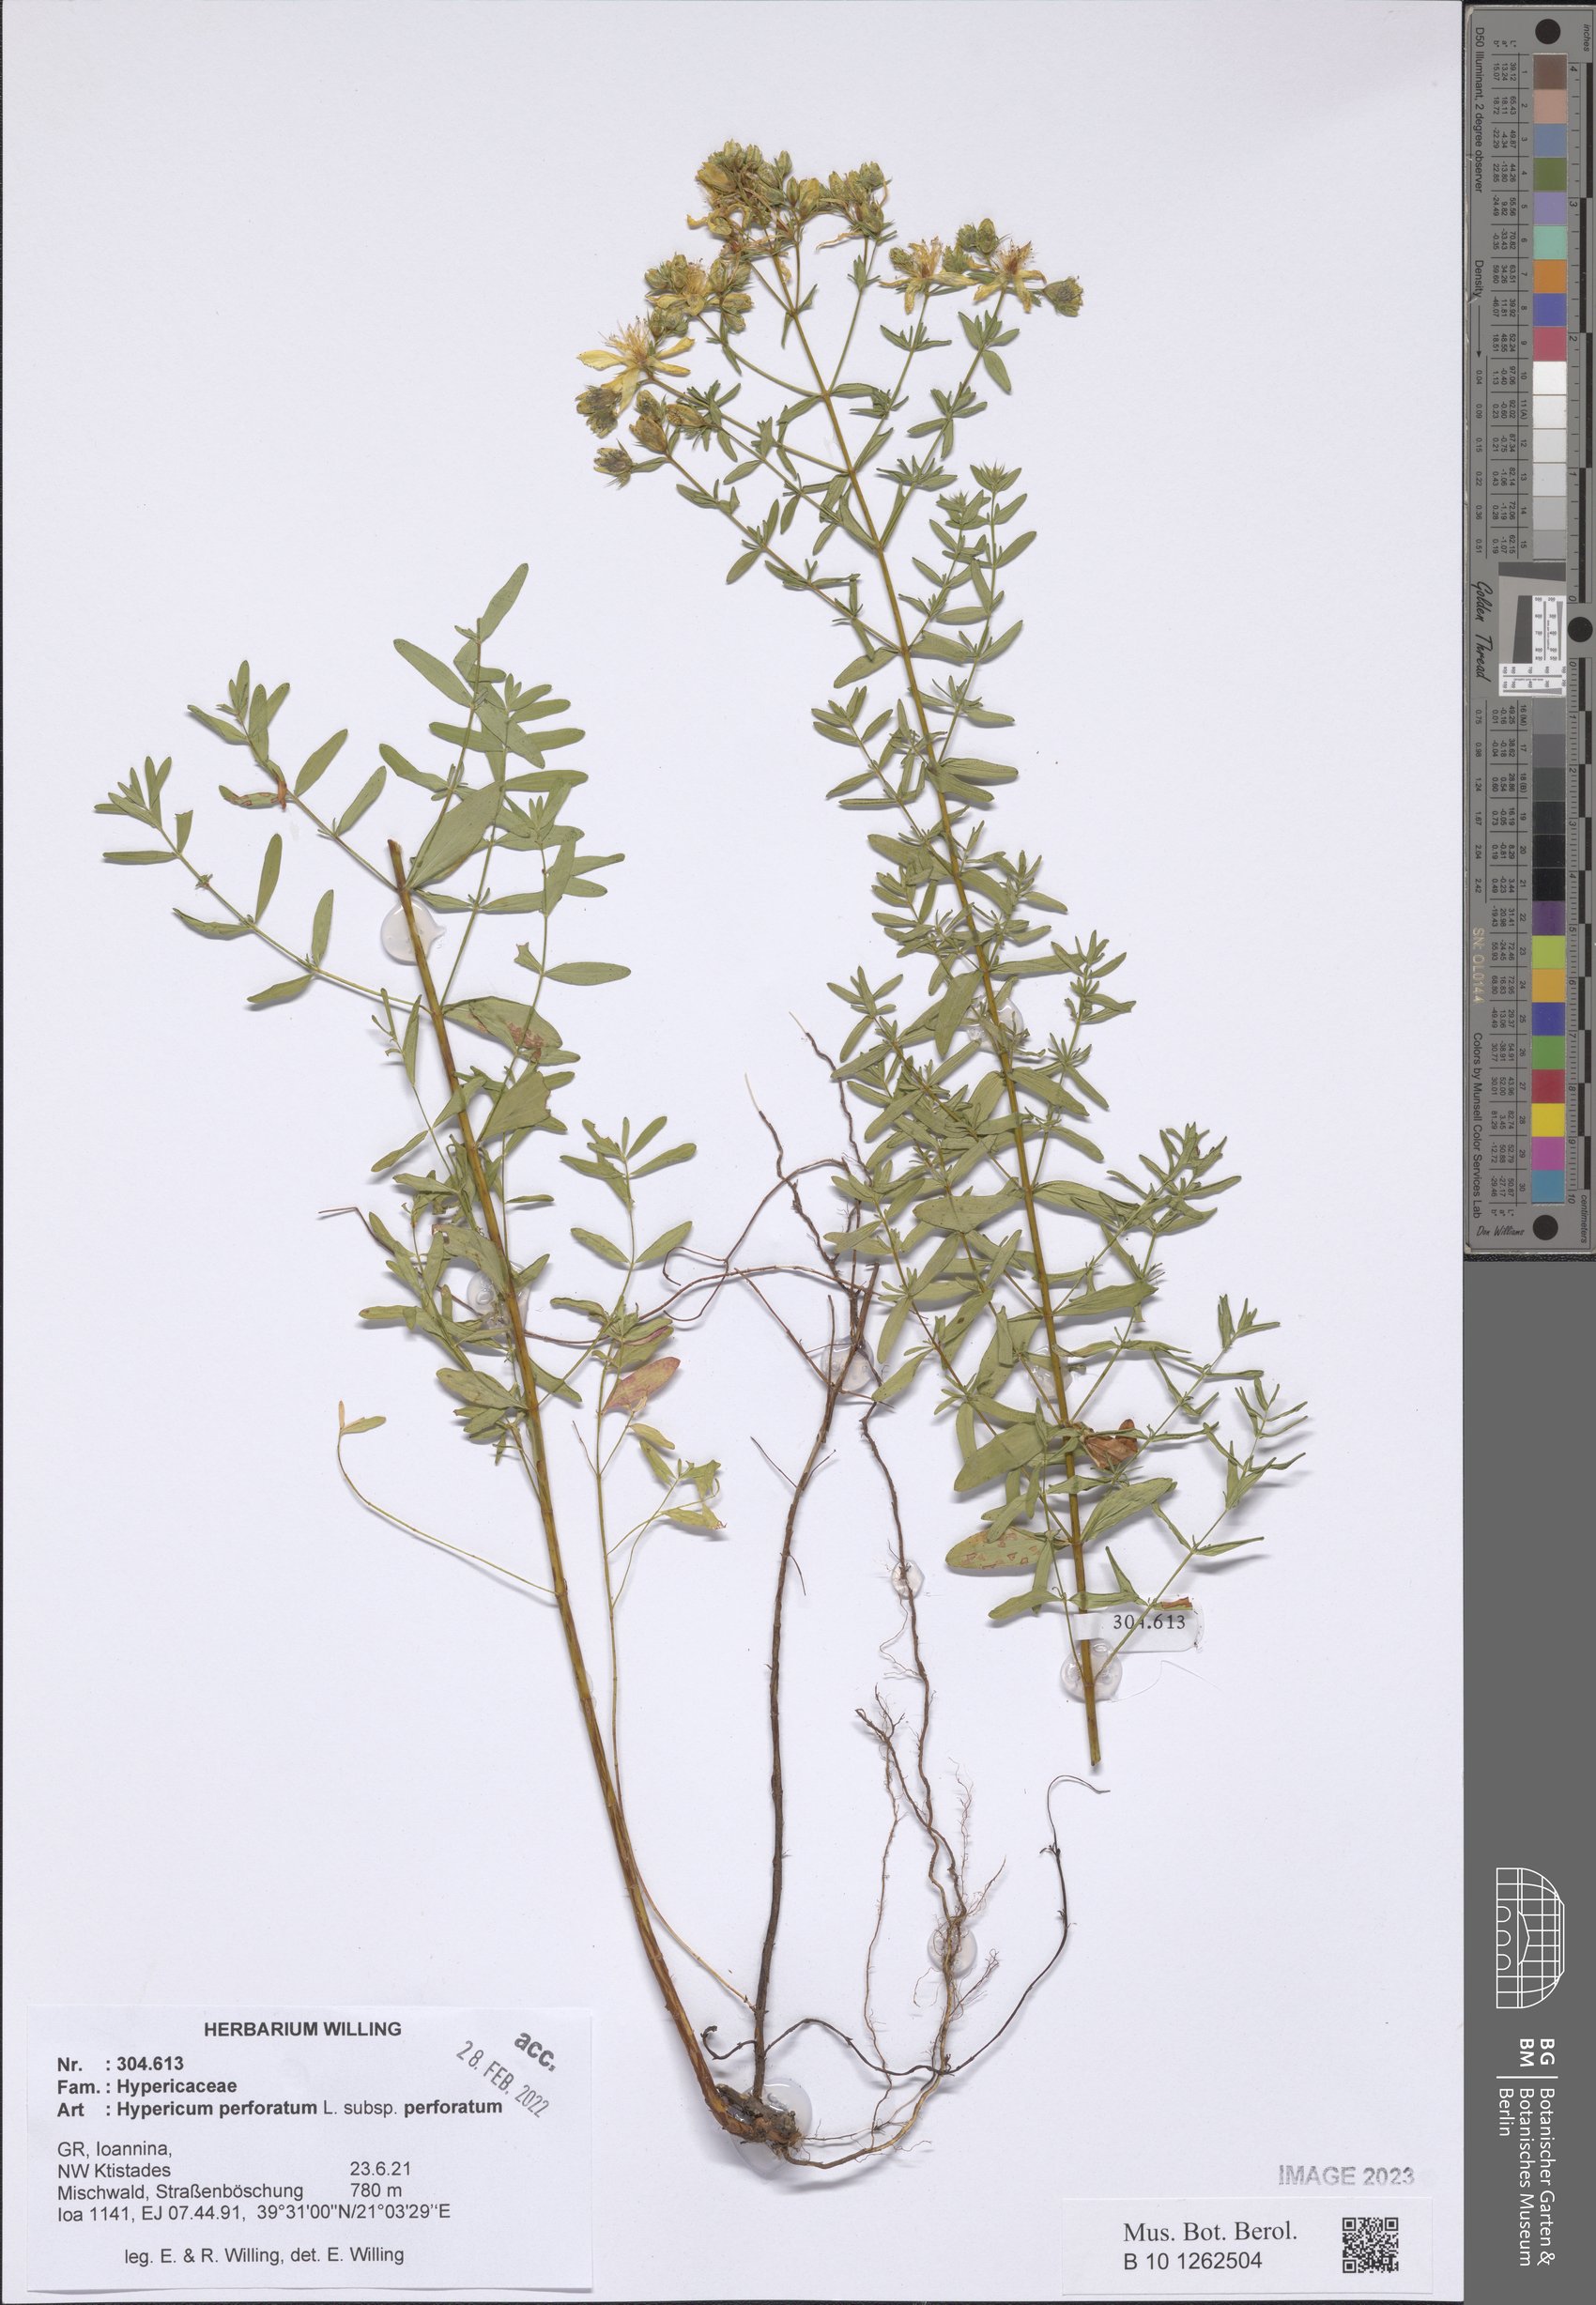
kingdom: Plantae
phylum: Tracheophyta
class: Magnoliopsida
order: Malpighiales
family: Hypericaceae
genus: Hypericum
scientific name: Hypericum perforatum
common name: Common st. johnswort
